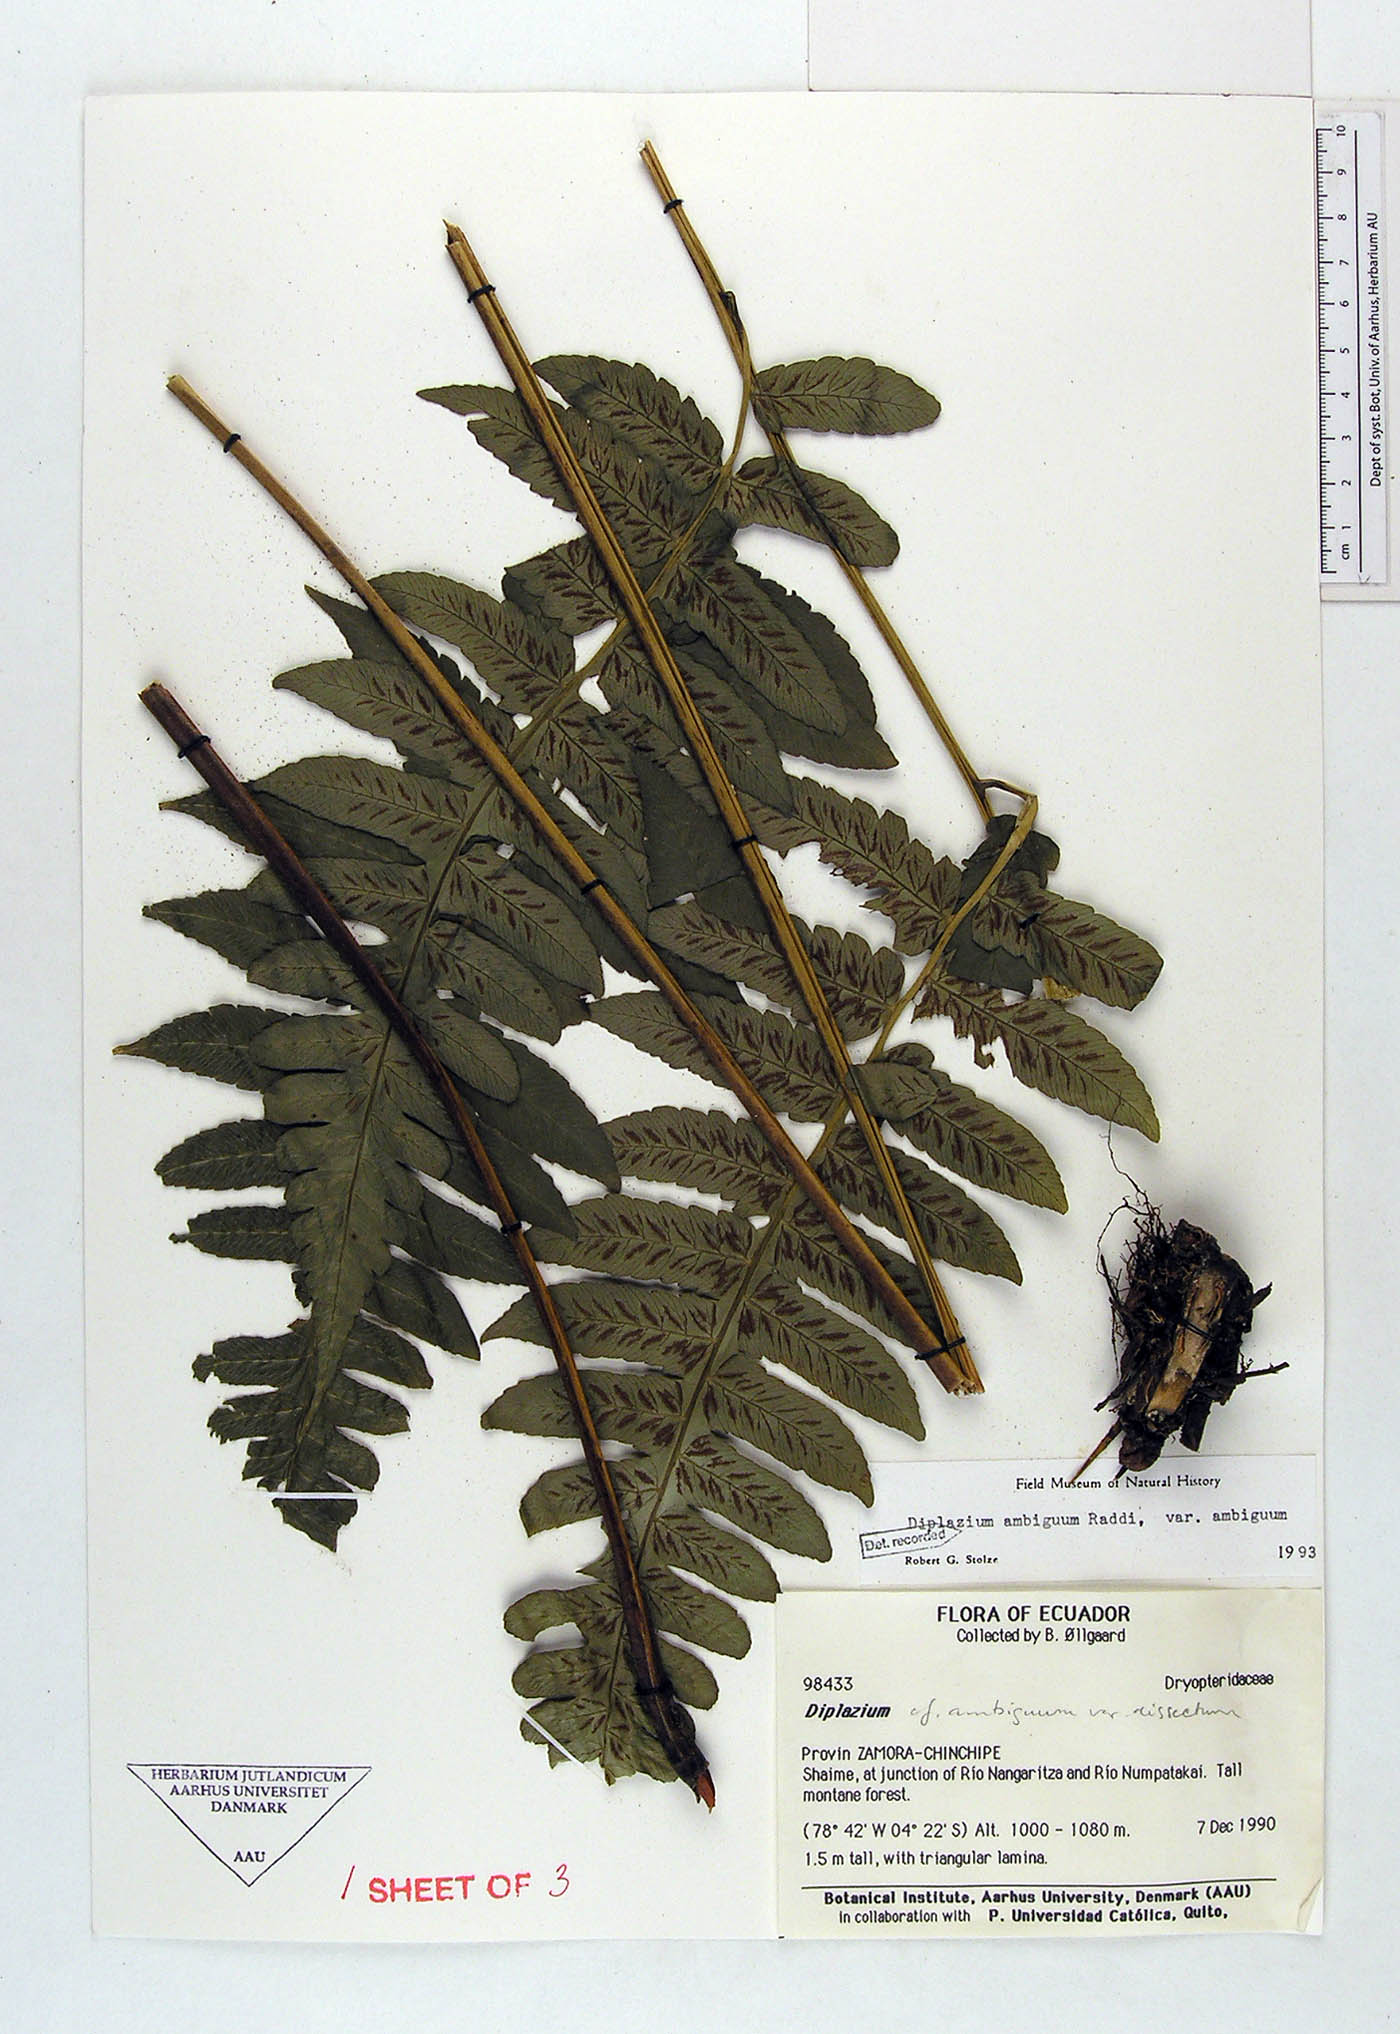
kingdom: Plantae
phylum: Tracheophyta
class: Polypodiopsida
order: Polypodiales
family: Athyriaceae
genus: Diplazium
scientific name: Diplazium ambiguum
